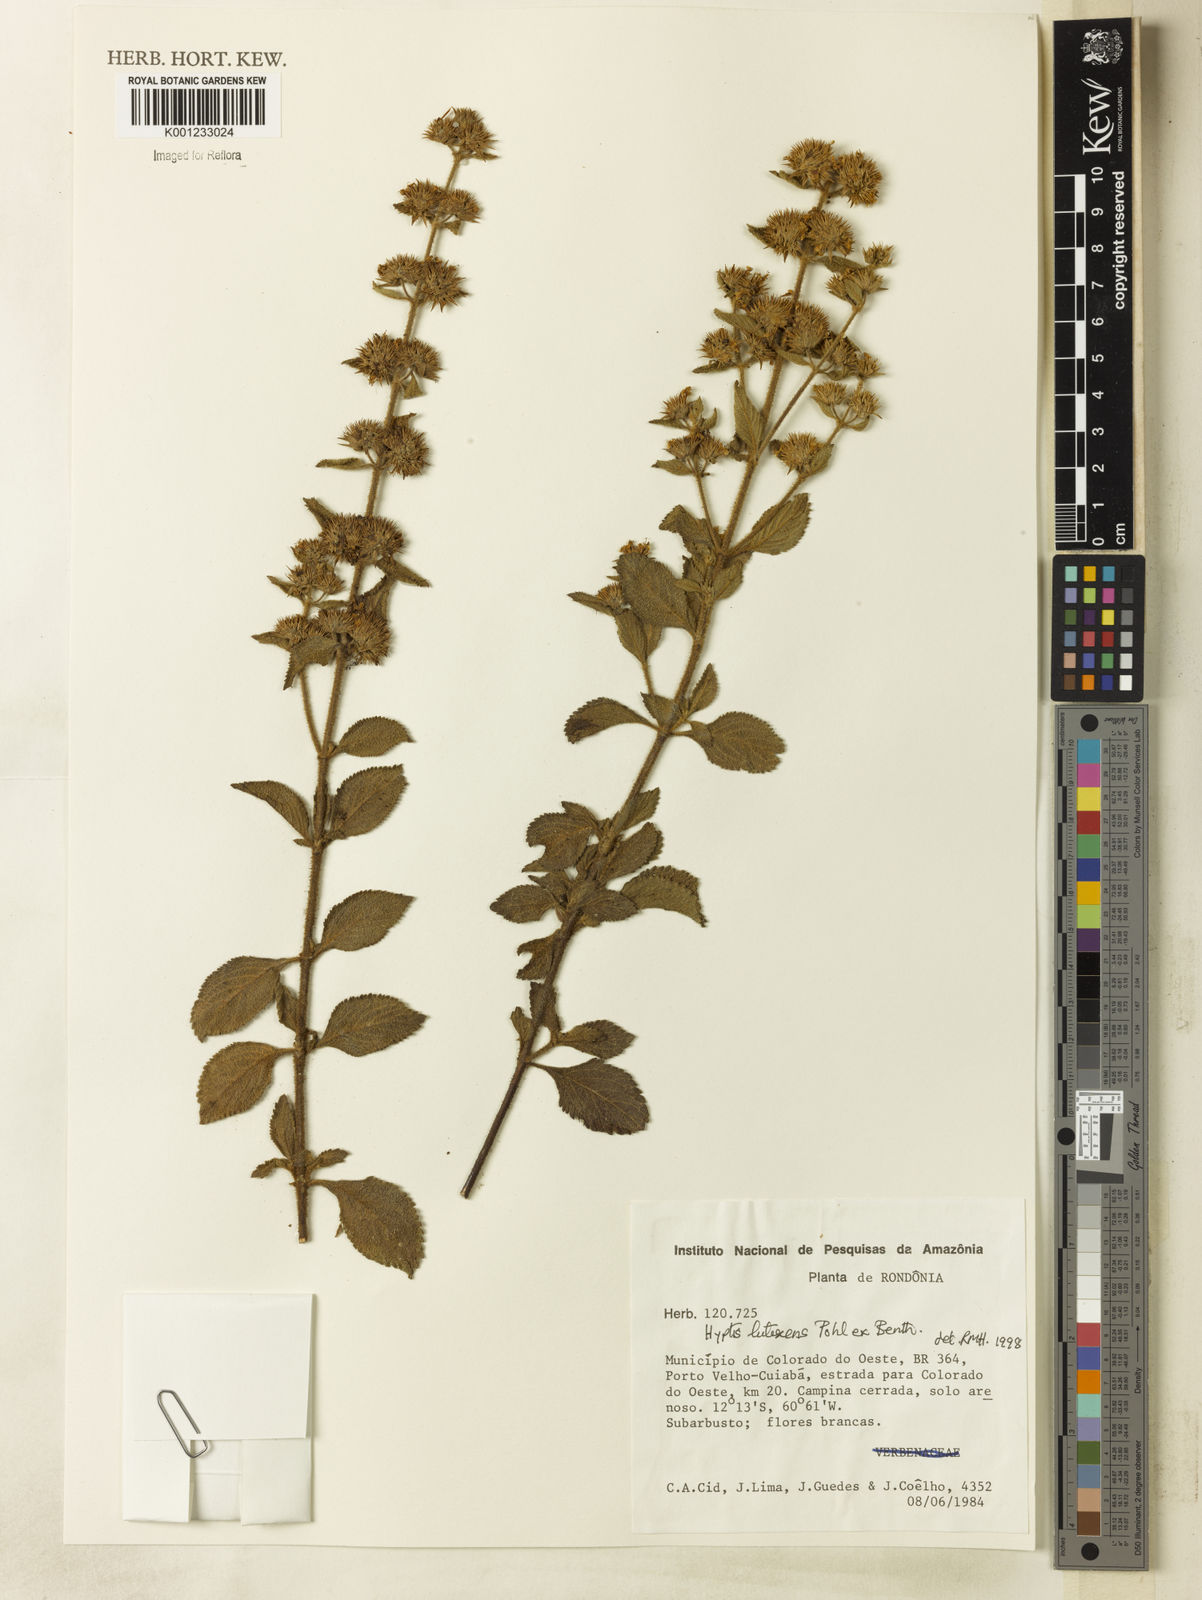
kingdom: Plantae
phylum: Tracheophyta
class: Magnoliopsida
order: Lamiales
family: Lamiaceae
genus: Hyptis
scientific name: Hyptis lutescens
